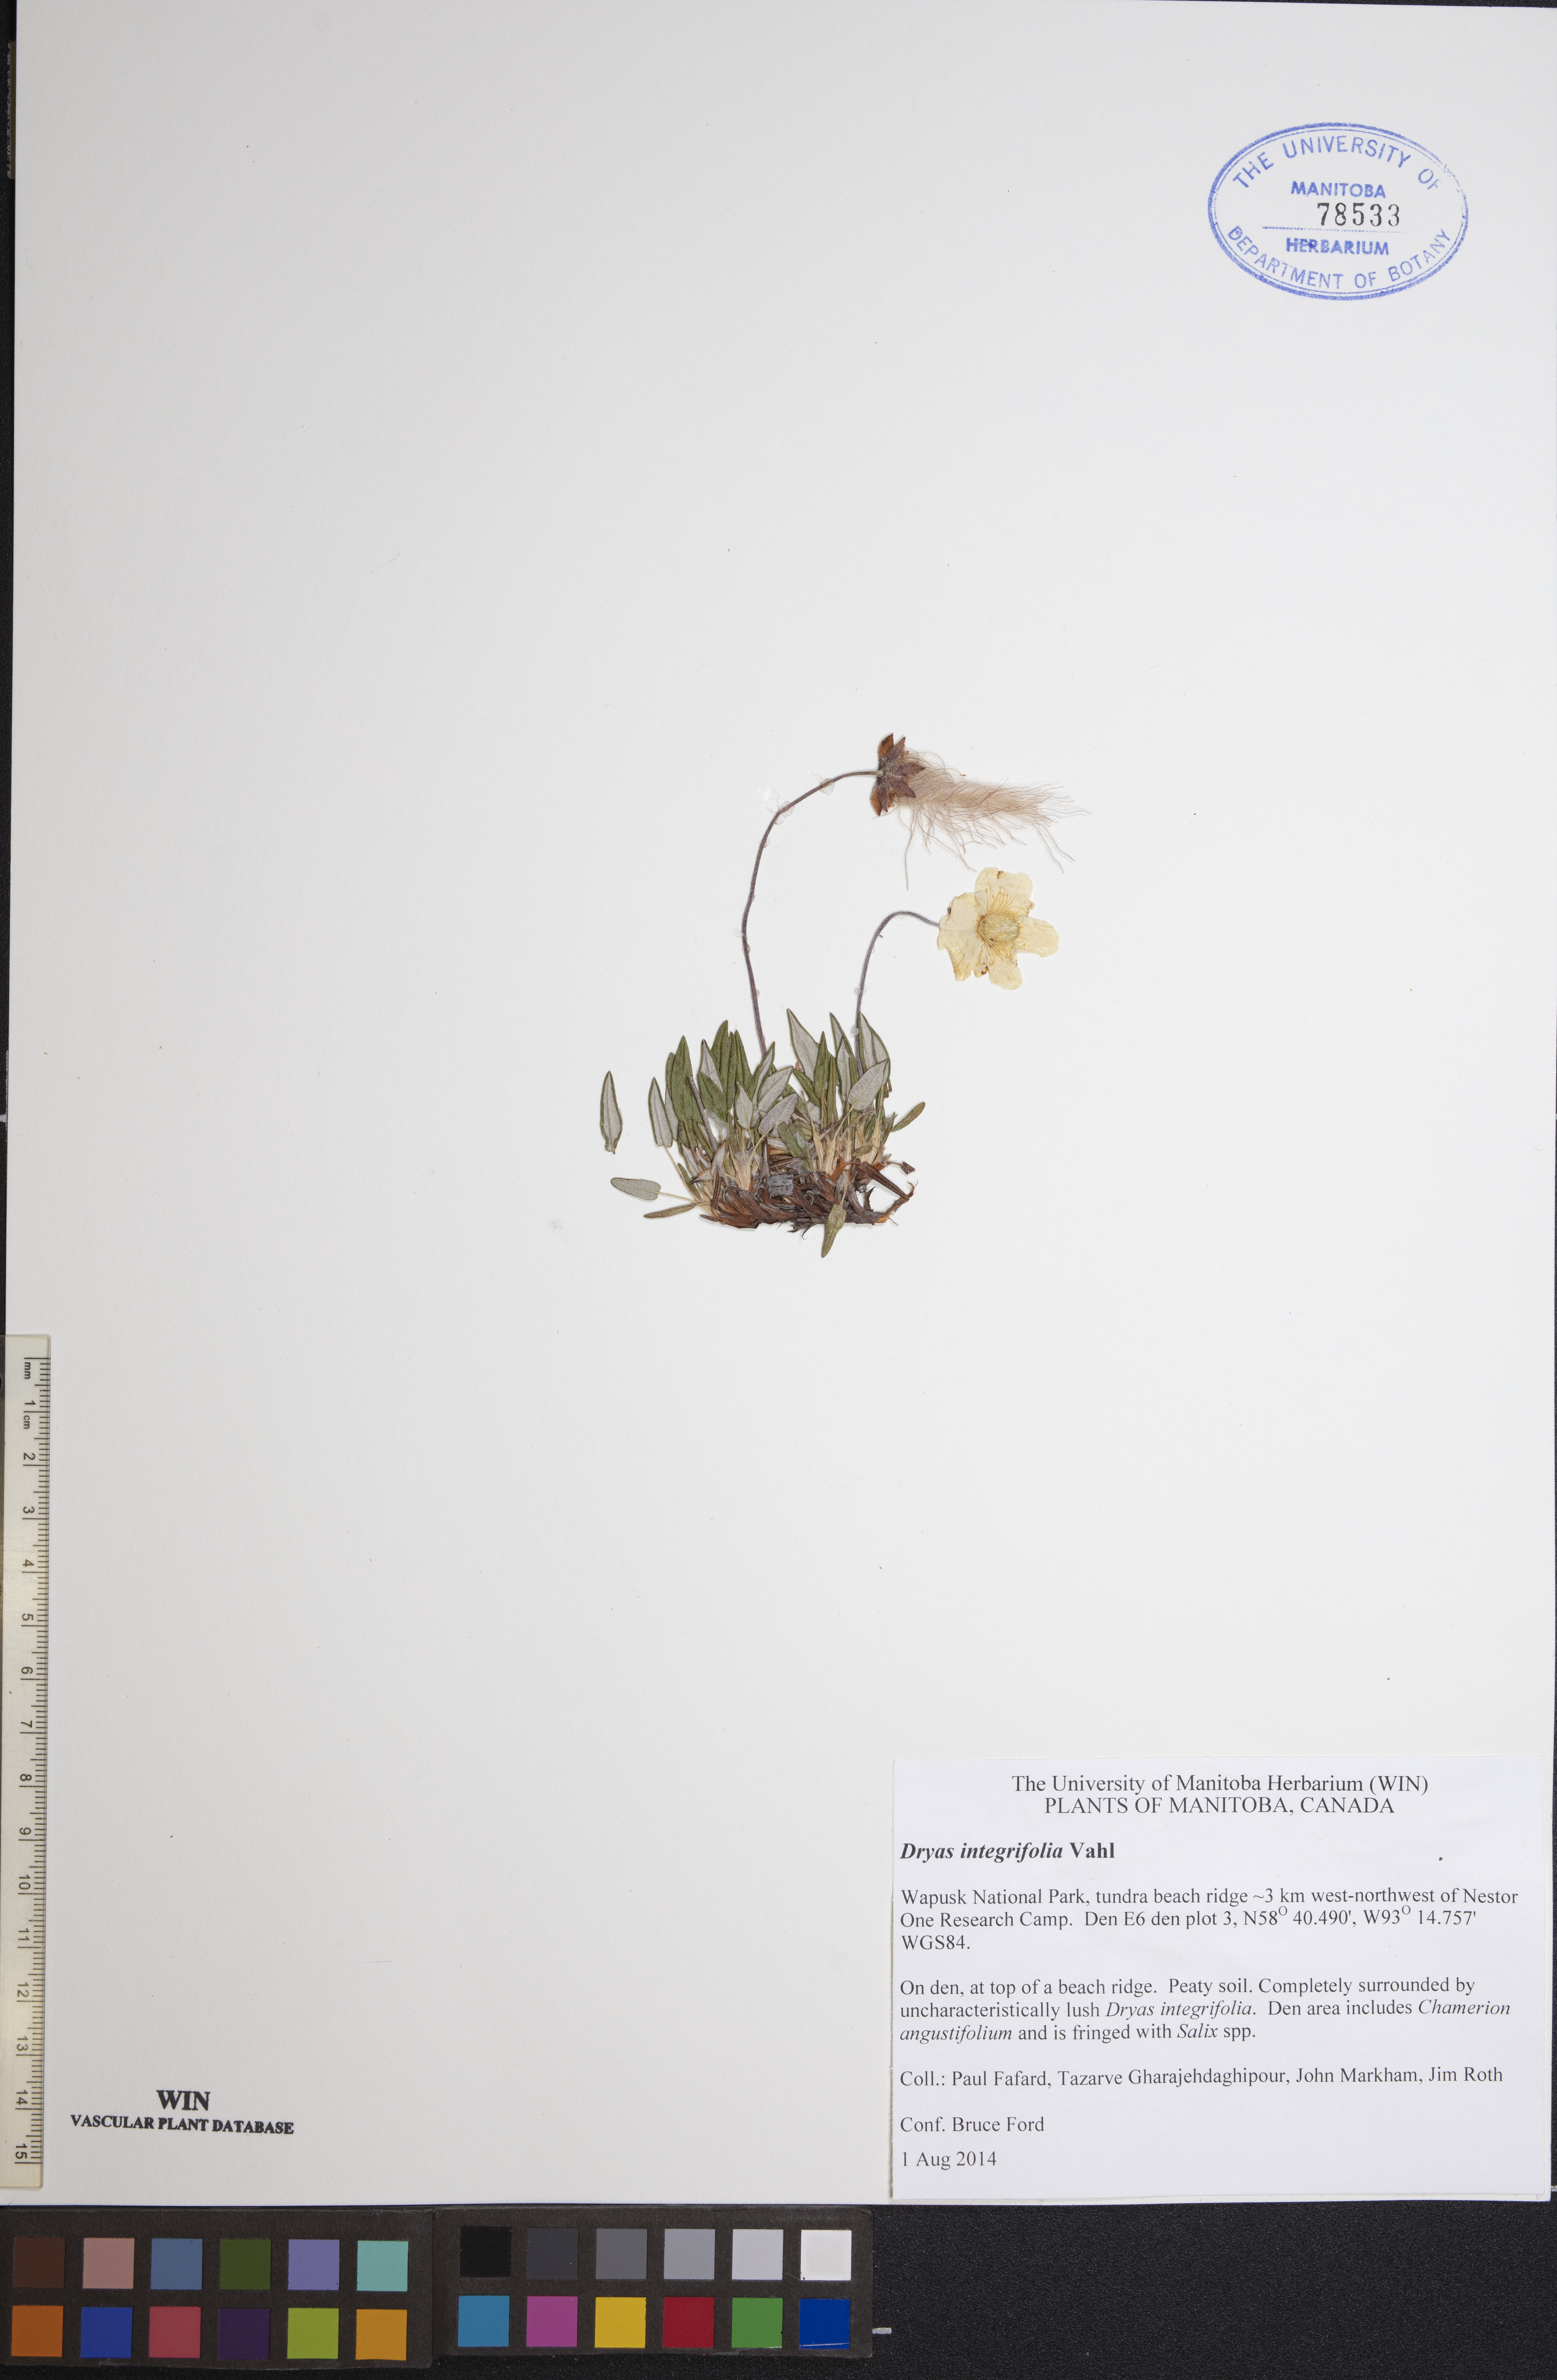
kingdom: Plantae
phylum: Tracheophyta
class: Magnoliopsida
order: Rosales
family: Rosaceae
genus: Dryas
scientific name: Dryas integrifolia
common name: Entire-leaved mountain avens
